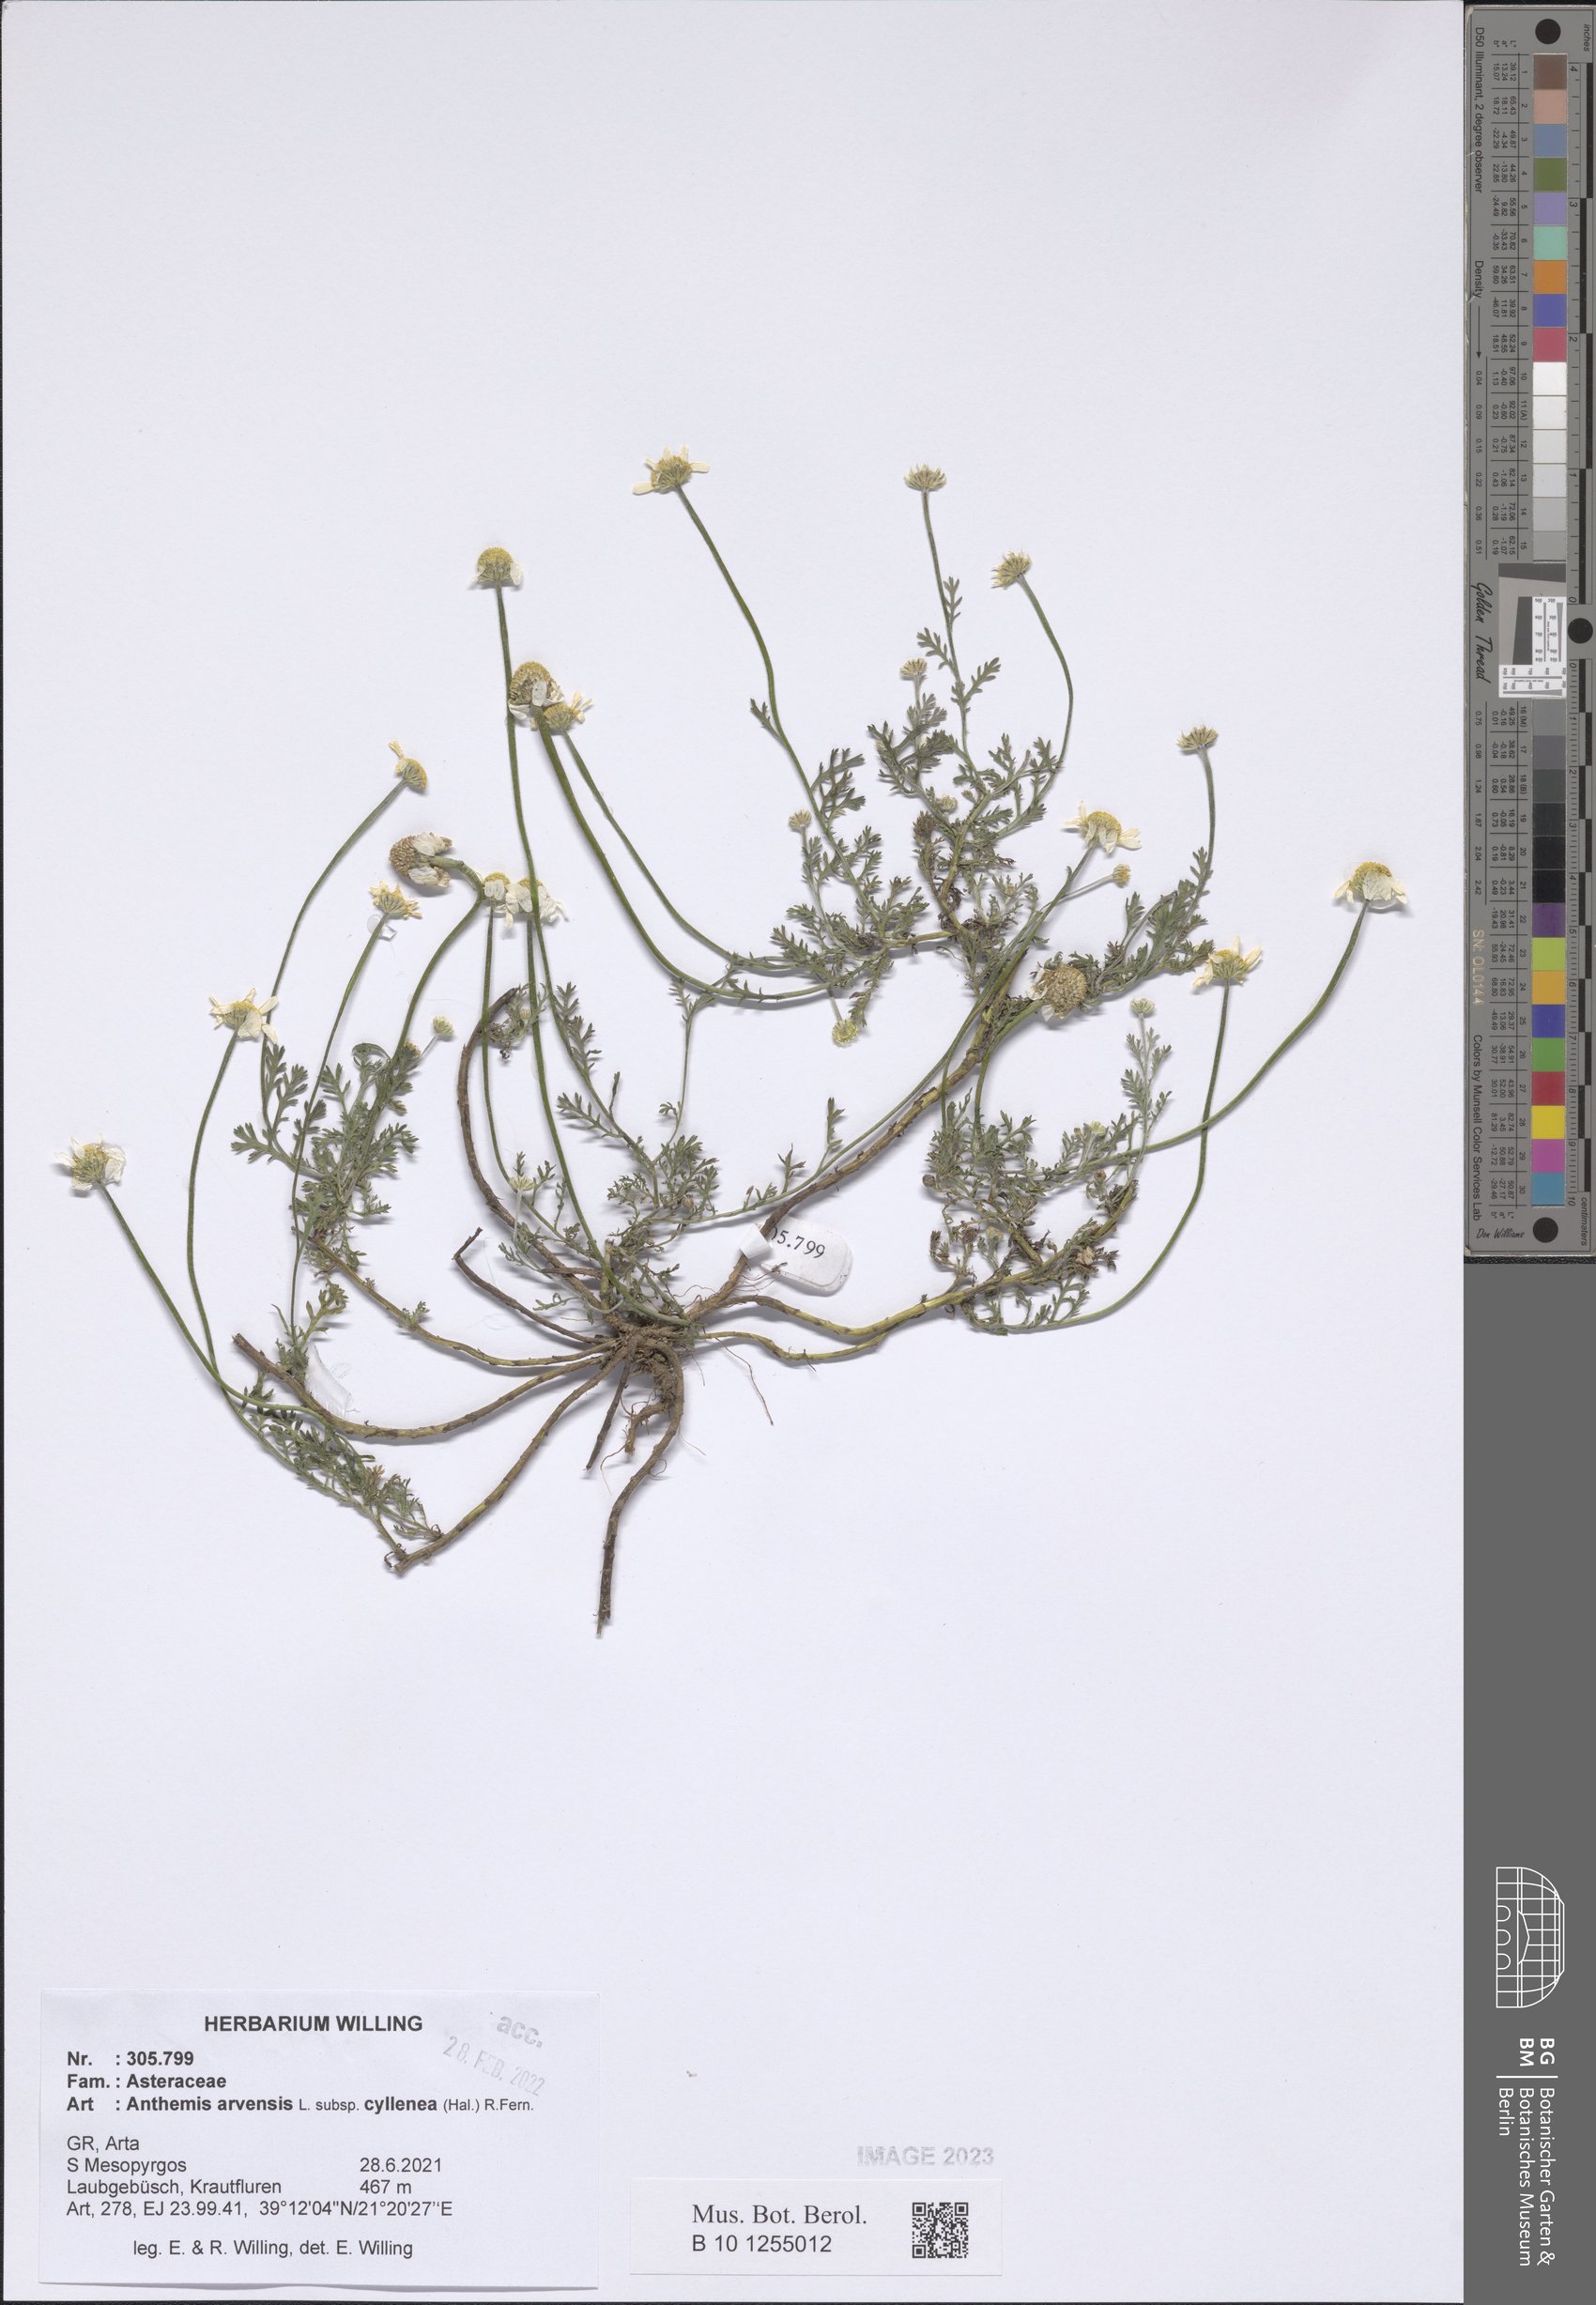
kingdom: Plantae
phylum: Tracheophyta
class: Magnoliopsida
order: Asterales
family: Asteraceae
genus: Anthemis
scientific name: Anthemis arvensis
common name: Corn chamomile
